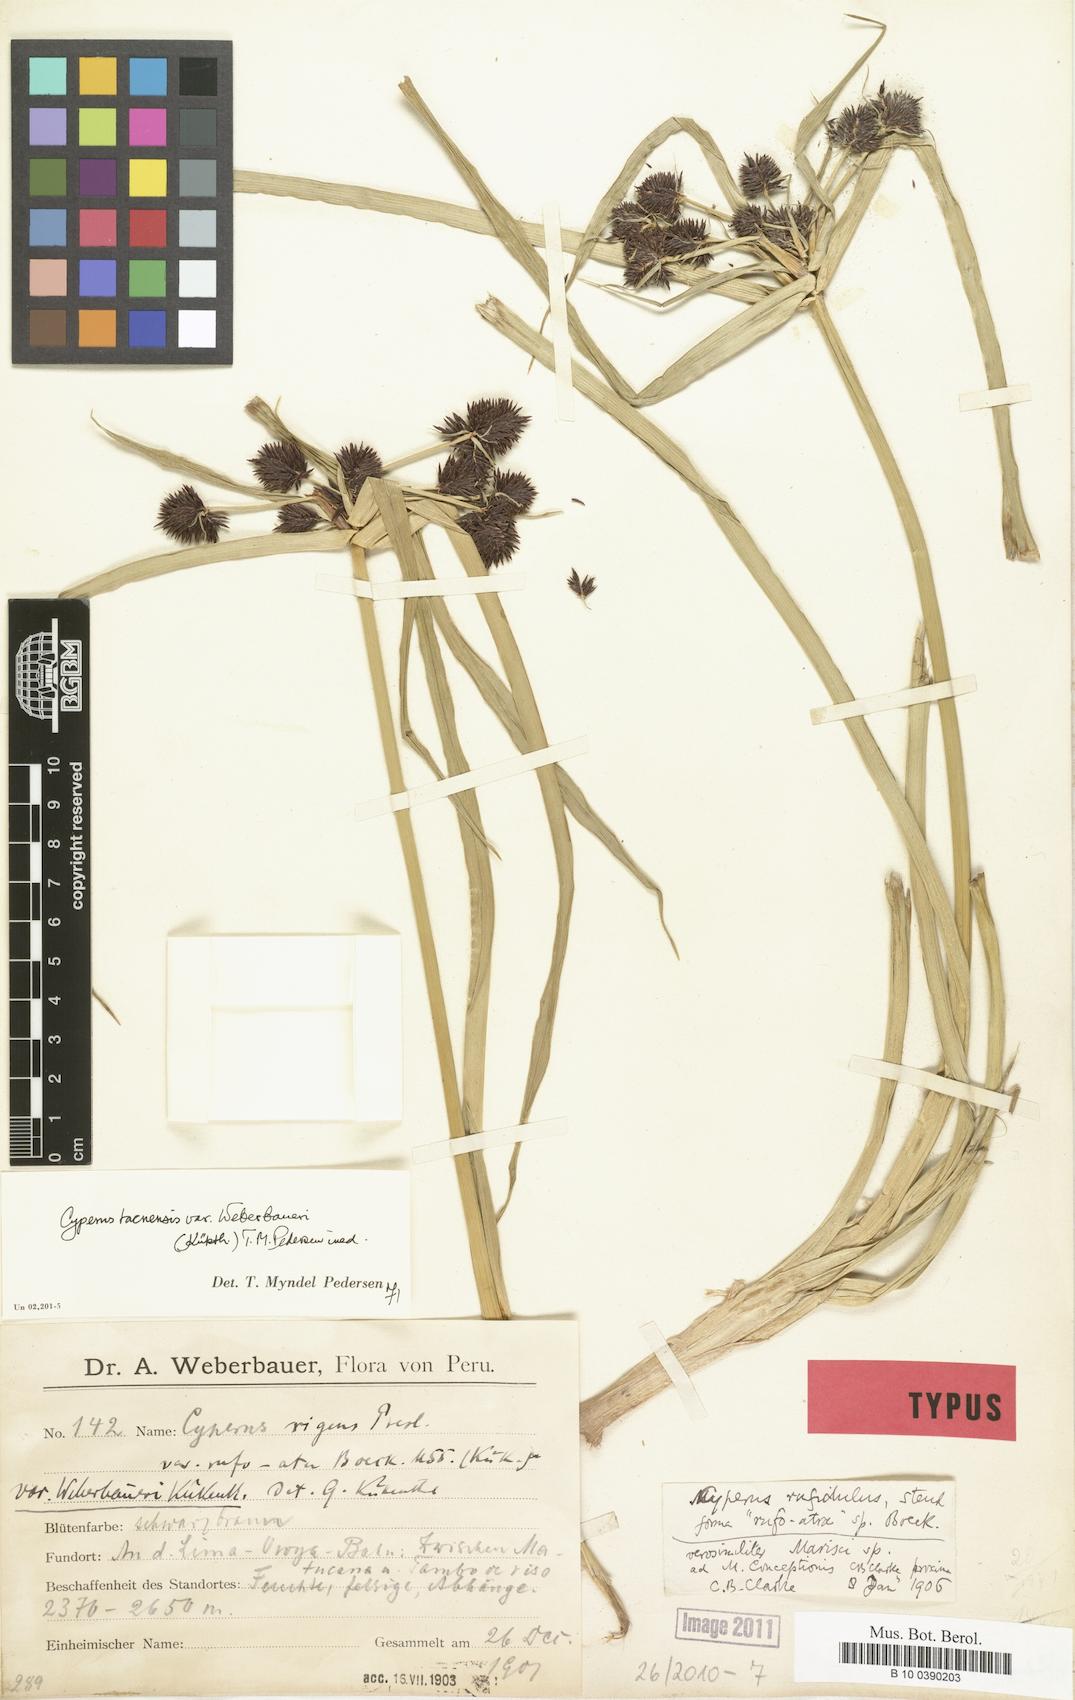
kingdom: Plantae
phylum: Tracheophyta
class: Liliopsida
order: Poales
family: Cyperaceae
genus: Cyperus
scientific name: Cyperus tacnensis
